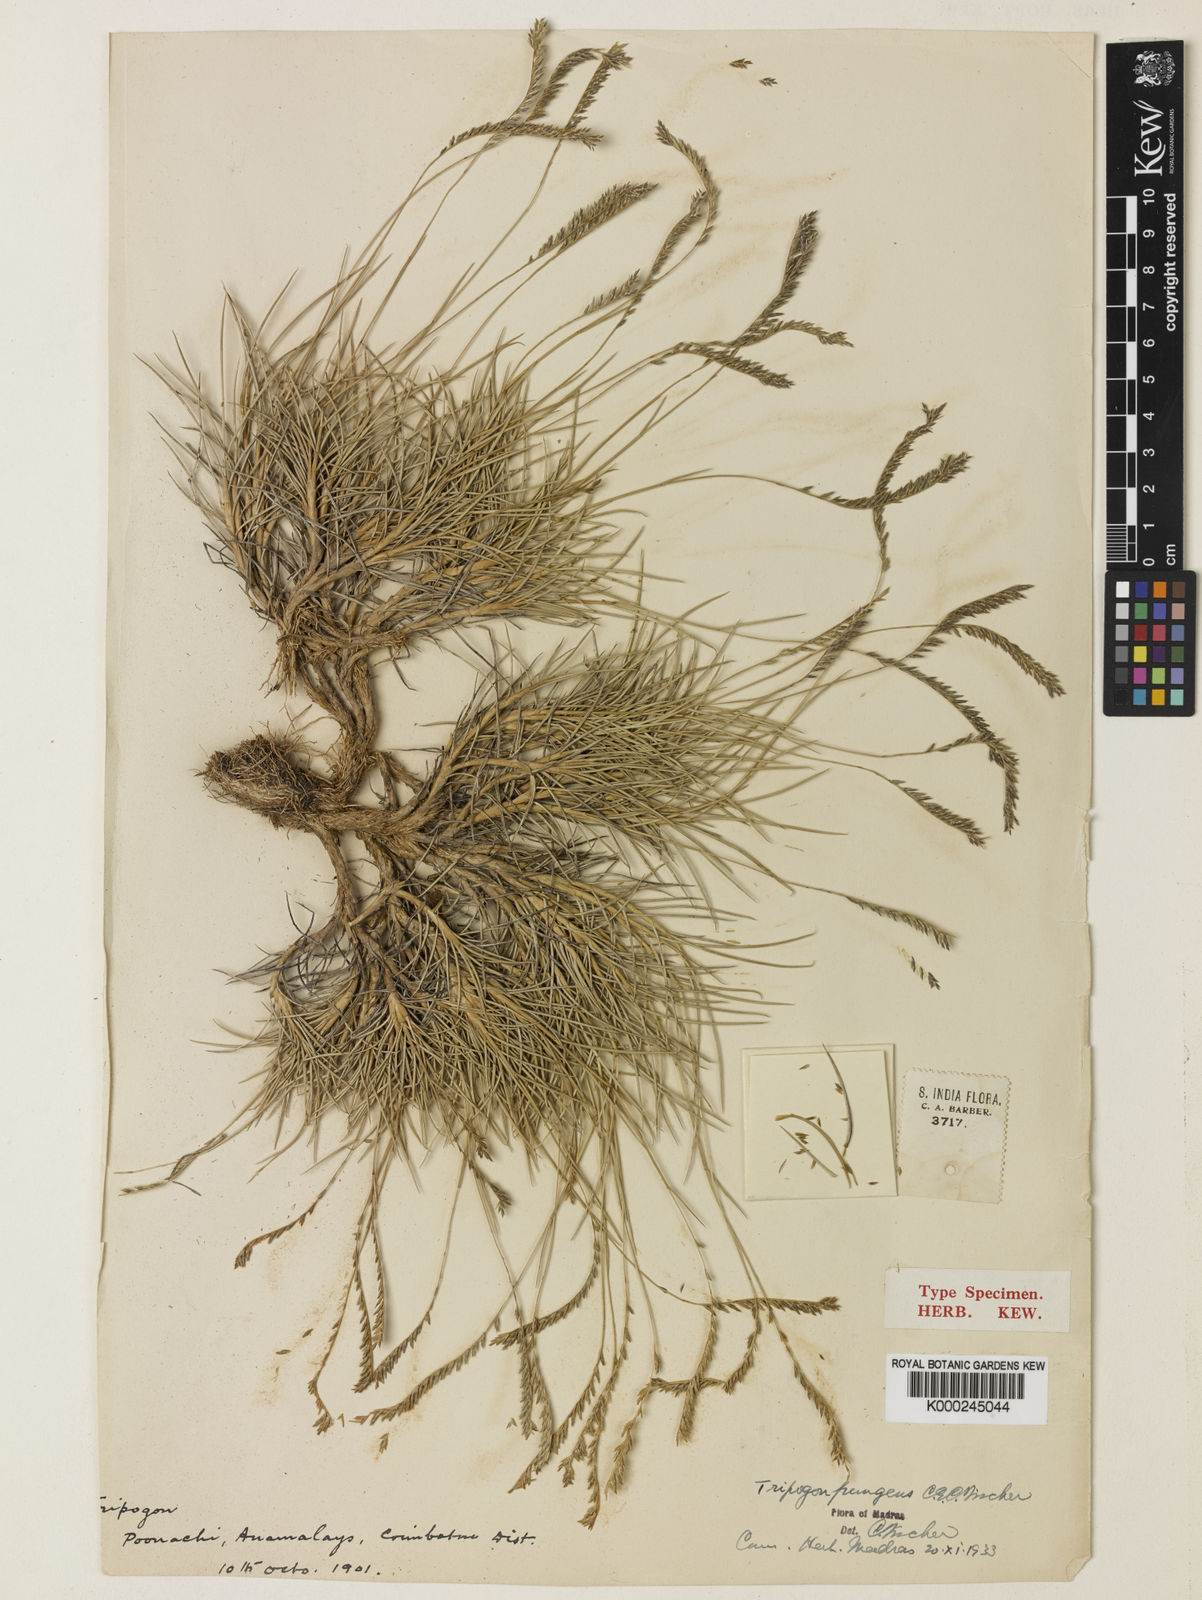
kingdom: Plantae
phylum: Tracheophyta
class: Liliopsida
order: Poales
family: Poaceae
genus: Tripogon
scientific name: Tripogon pungens
